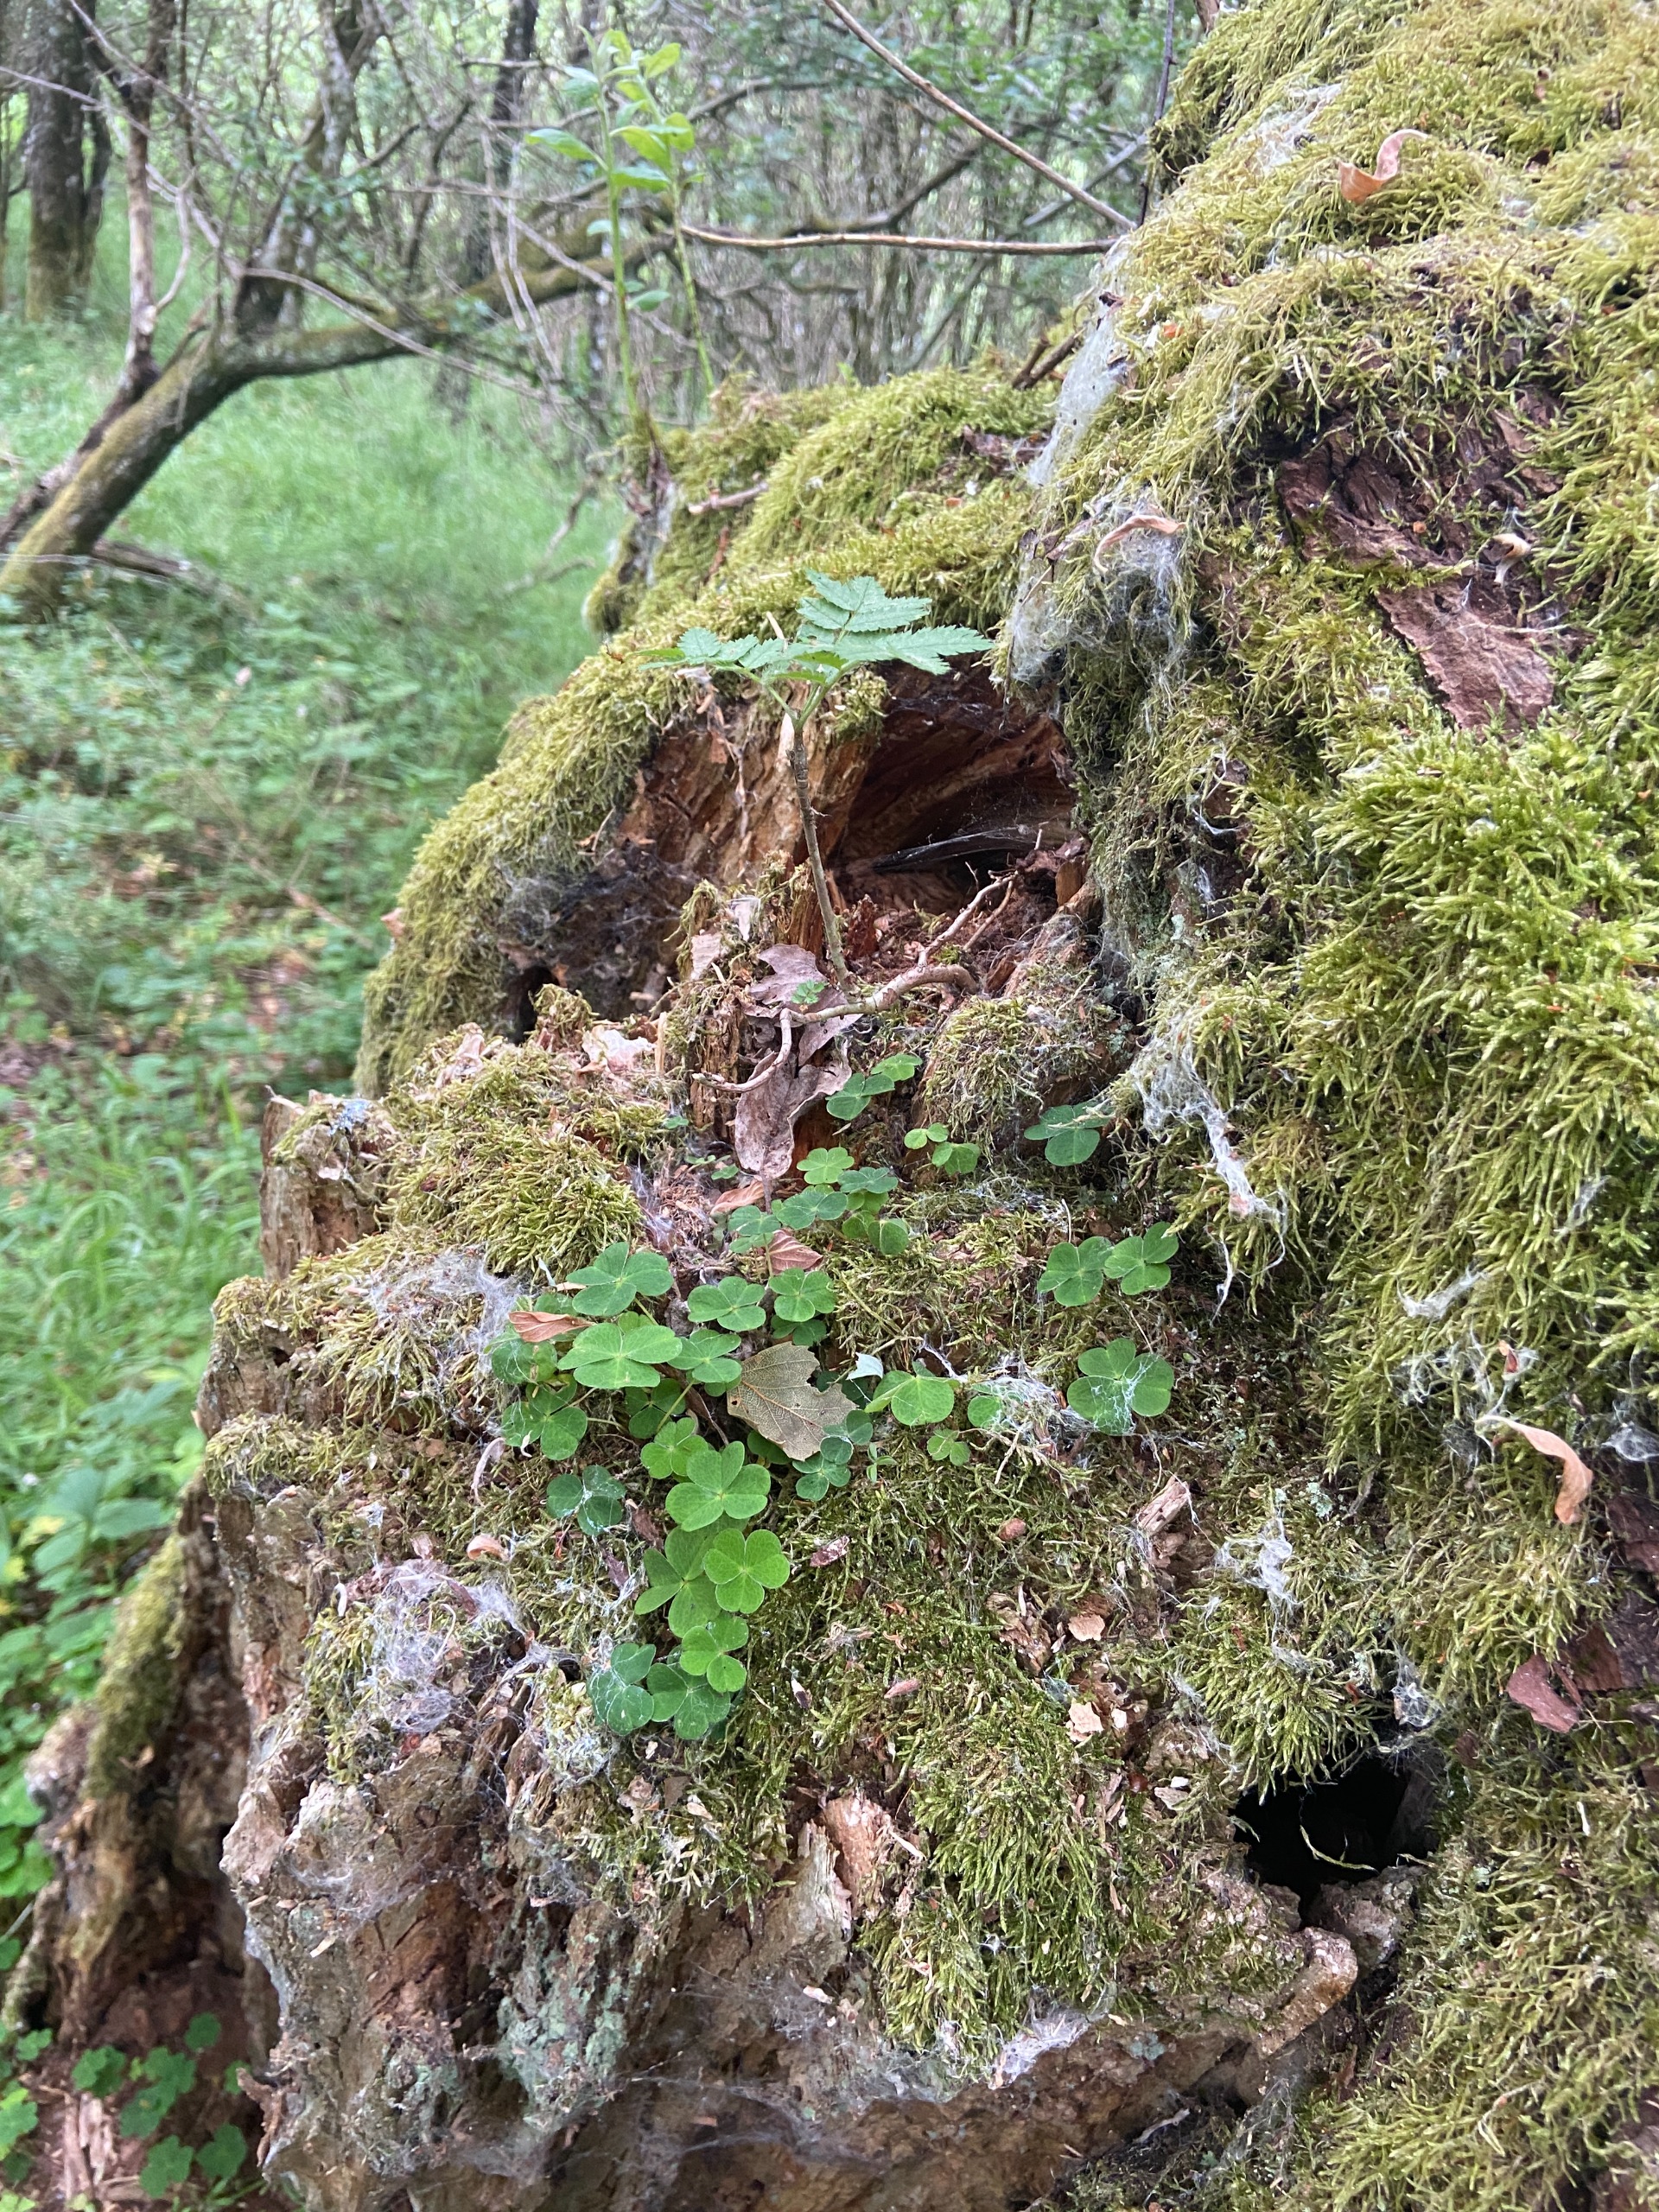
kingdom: Plantae
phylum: Tracheophyta
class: Magnoliopsida
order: Oxalidales
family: Oxalidaceae
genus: Oxalis
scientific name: Oxalis acetosella
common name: Skovsyre
